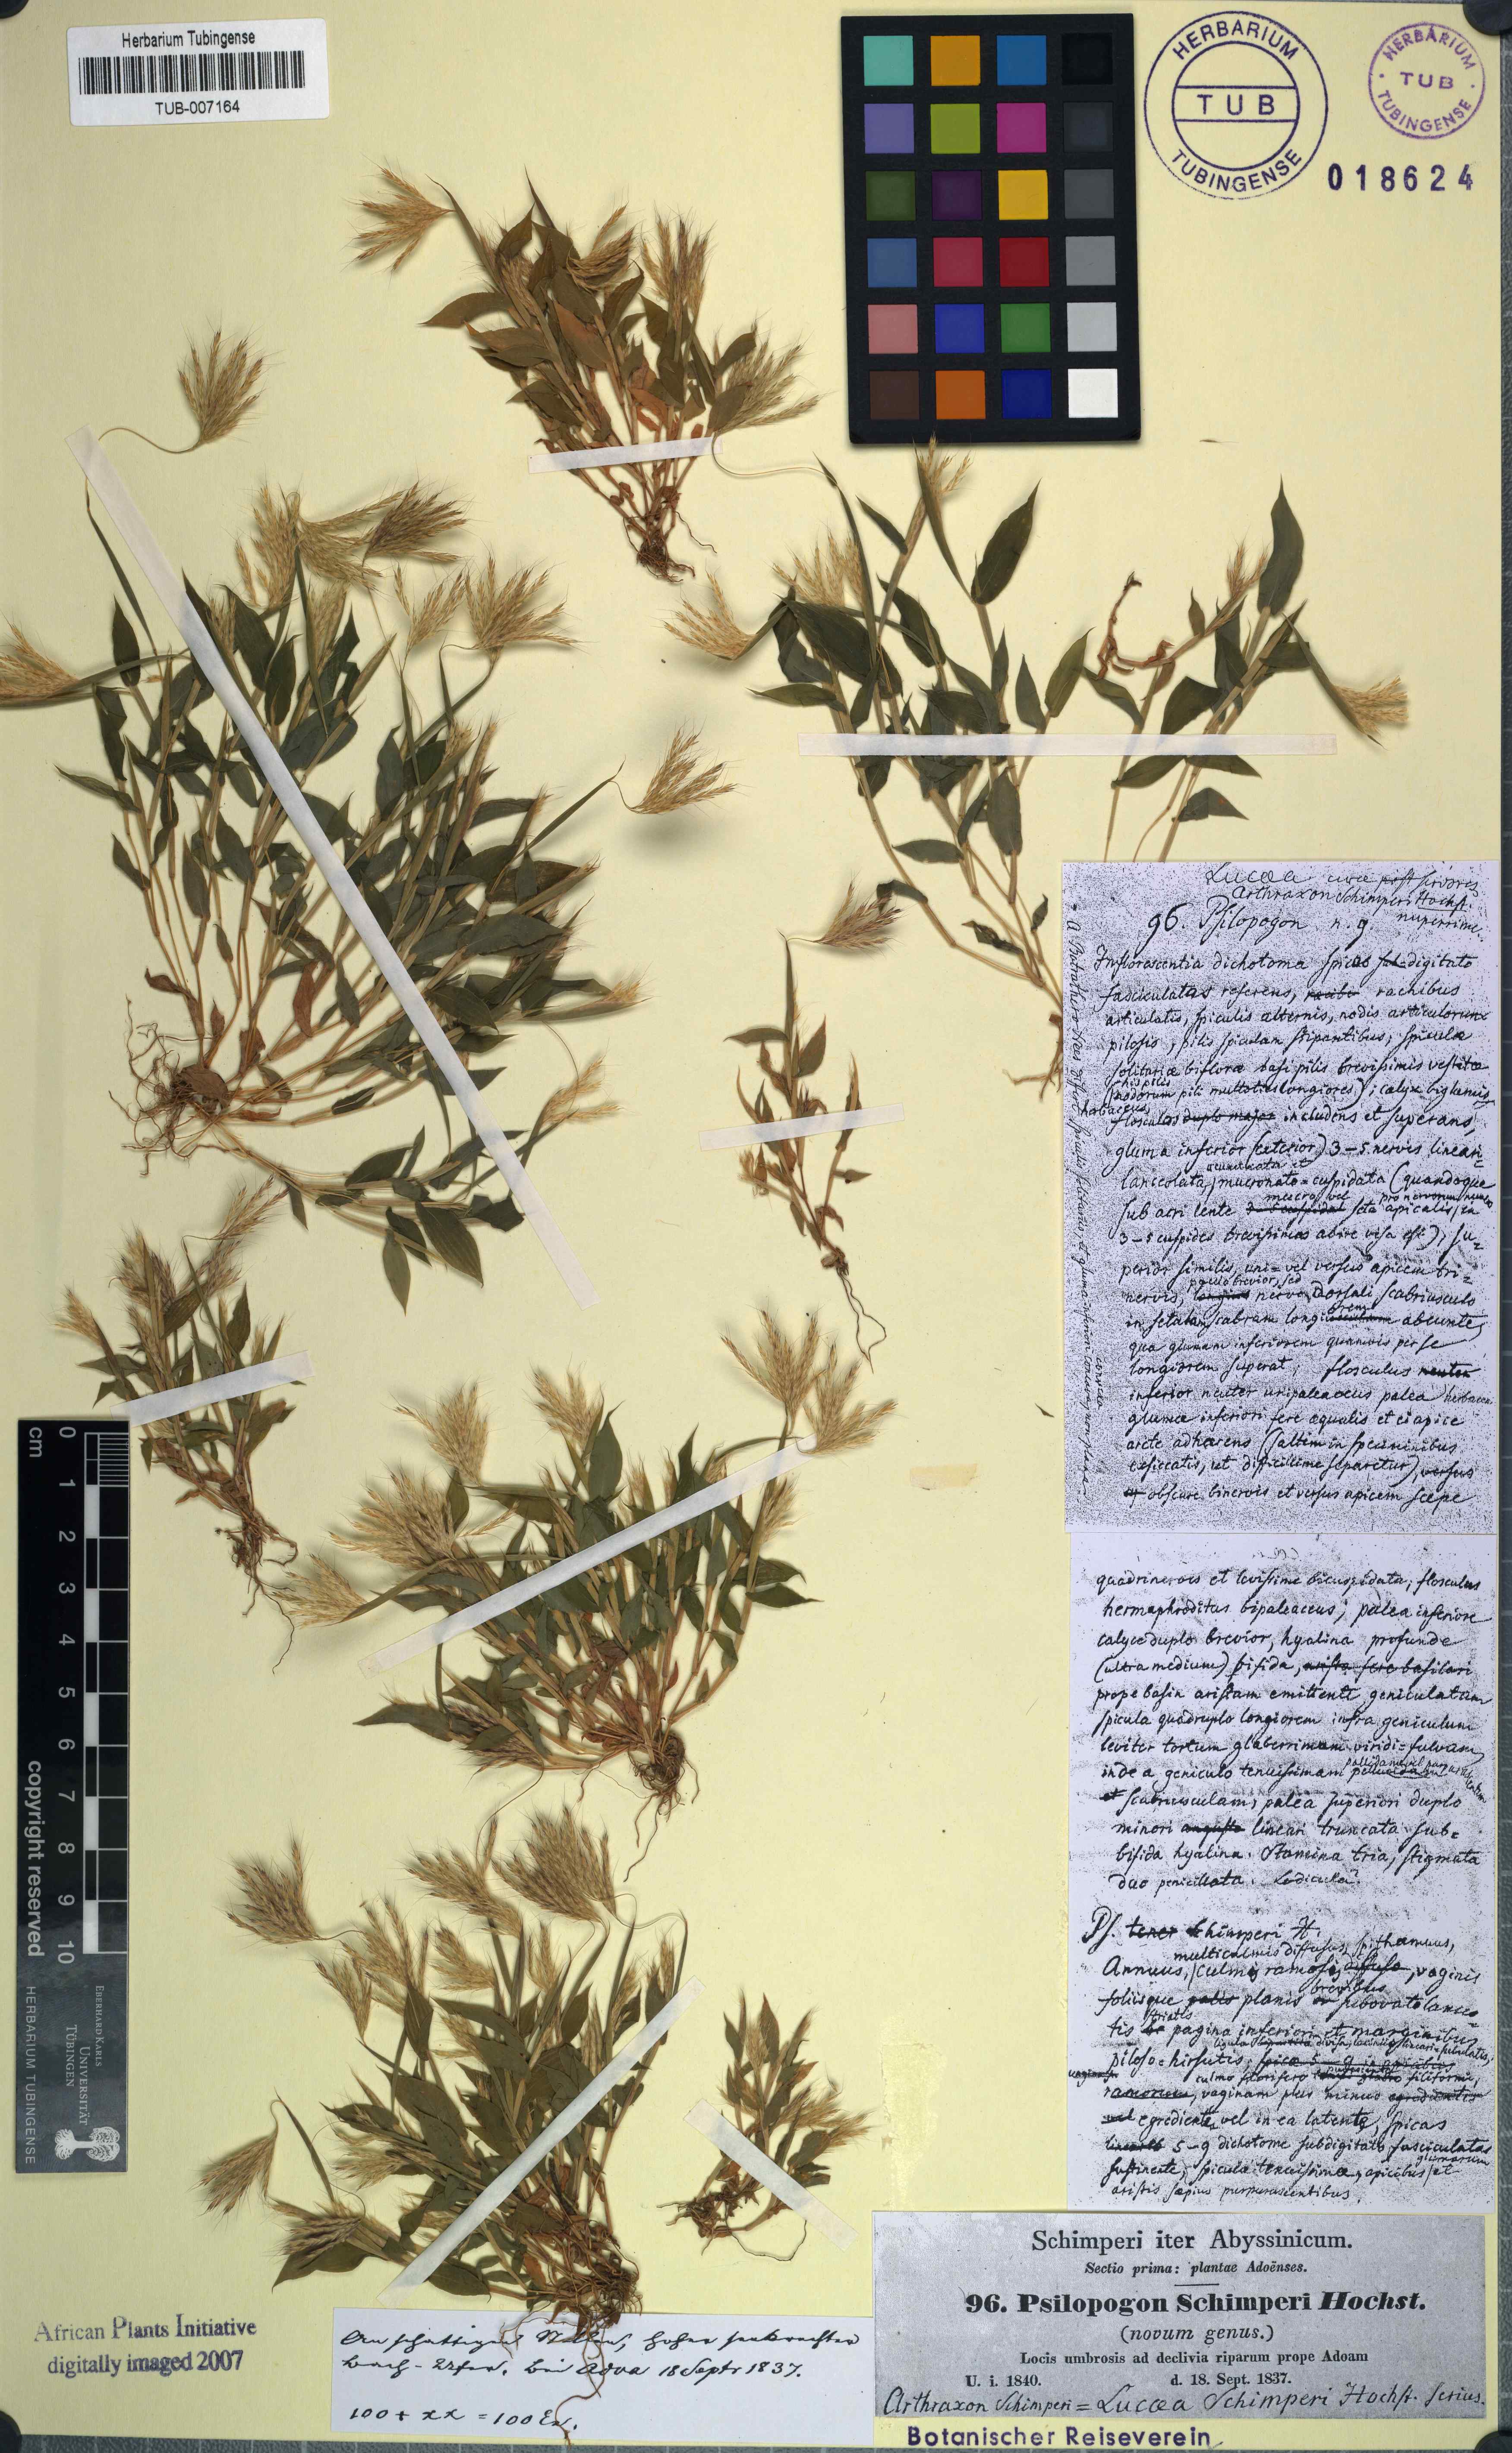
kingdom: Plantae
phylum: Tracheophyta
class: Liliopsida
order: Poales
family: Poaceae
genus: Arthraxon
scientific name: Arthraxon microphyllus
